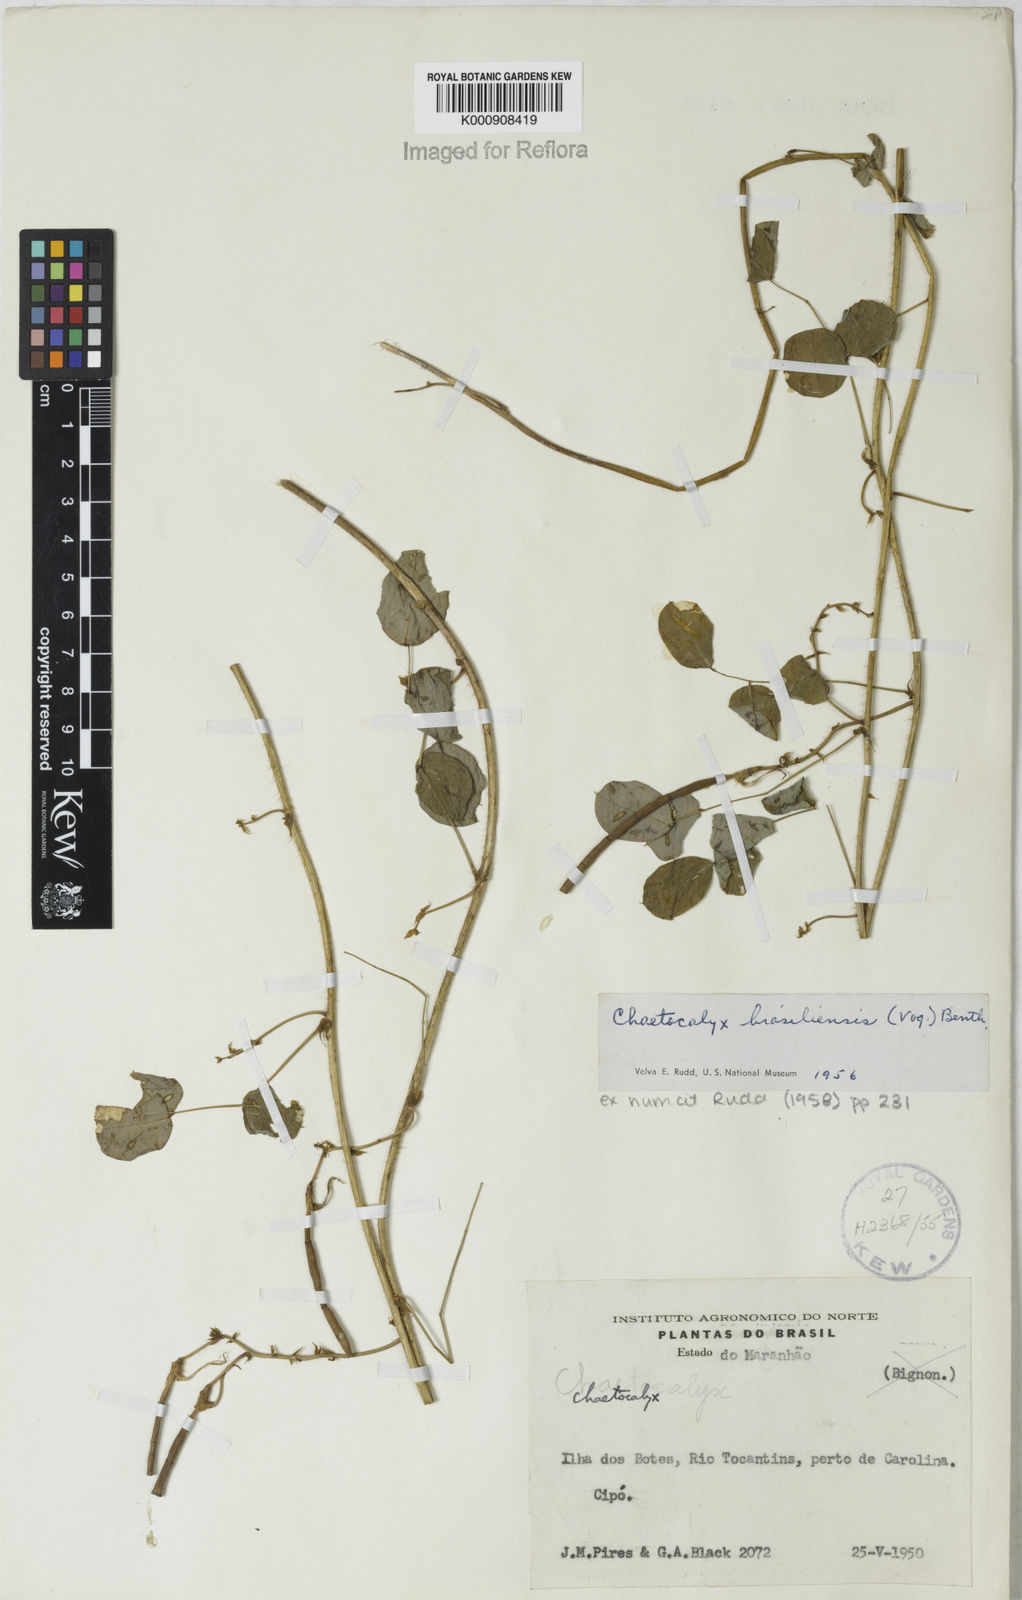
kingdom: Plantae
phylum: Tracheophyta
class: Magnoliopsida
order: Fabales
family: Fabaceae
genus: Nissolia
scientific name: Nissolia brasiliensis
